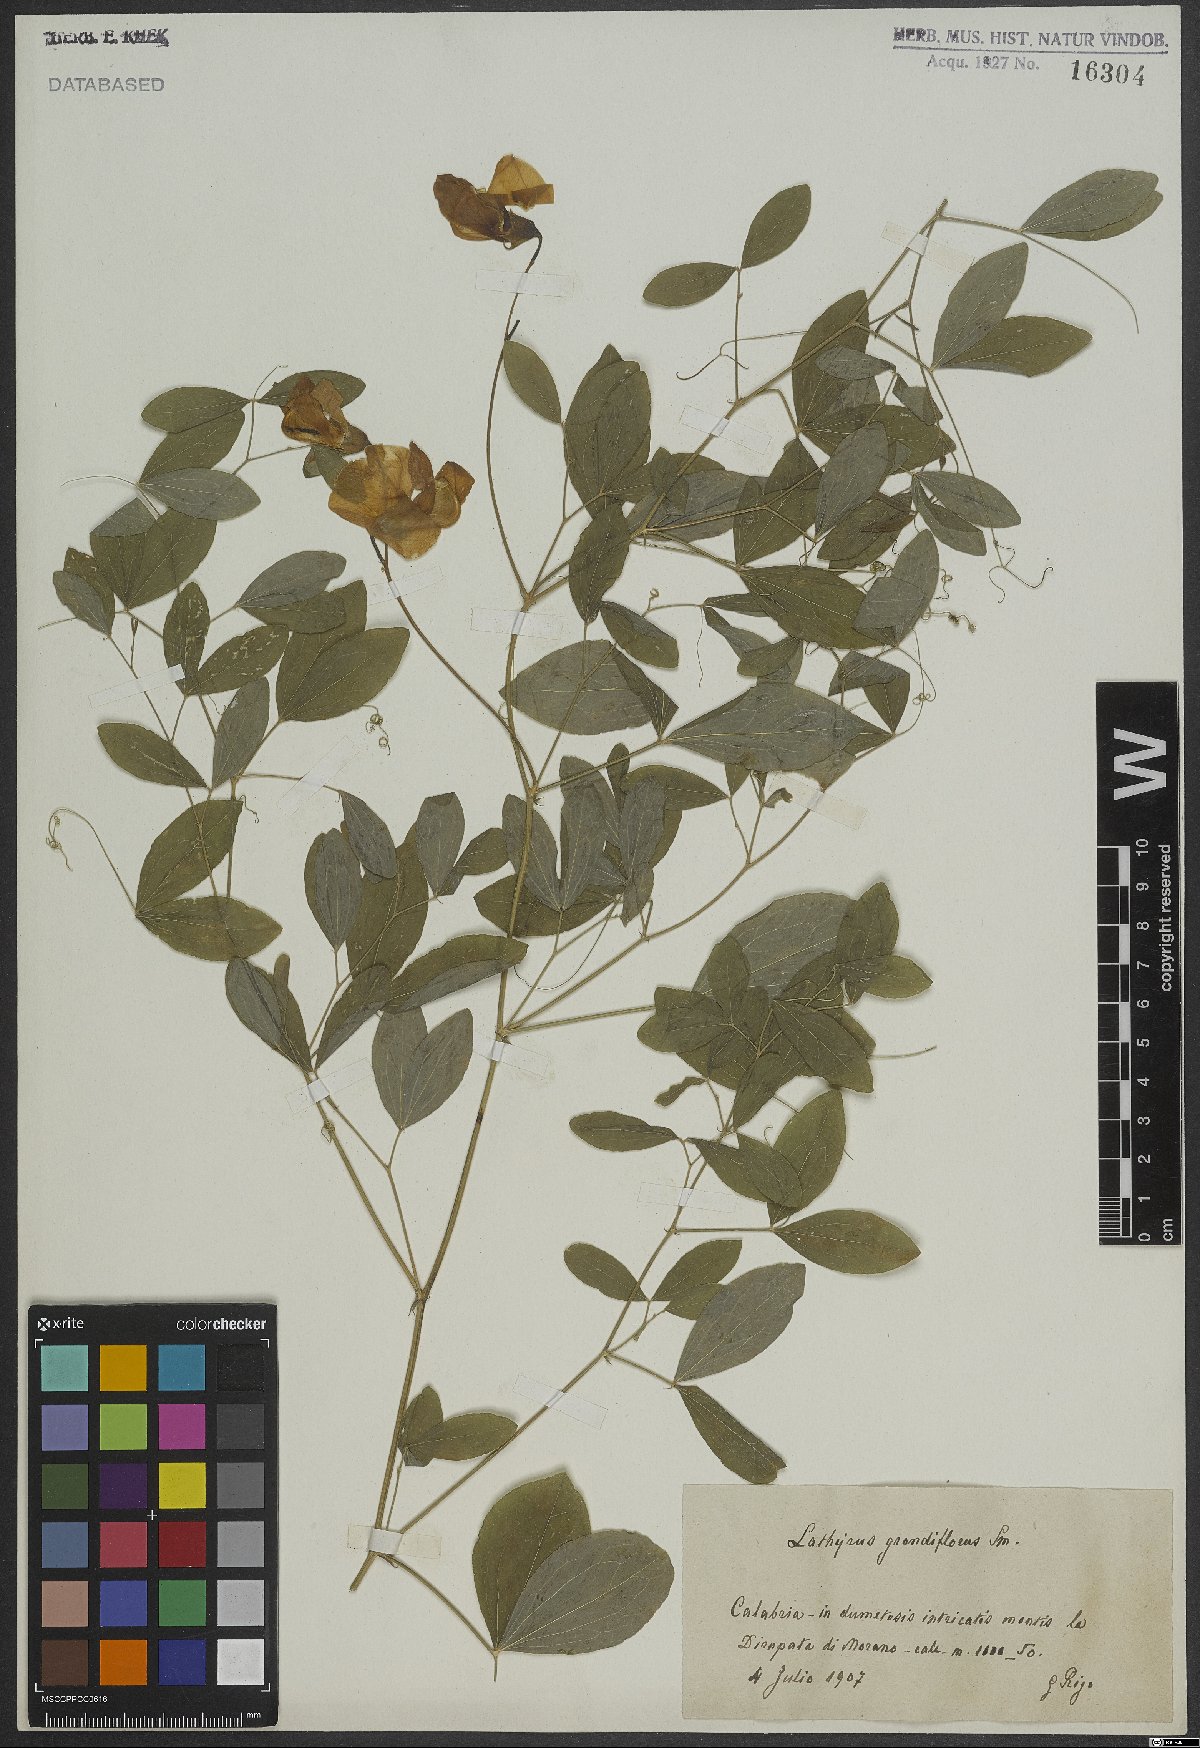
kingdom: Plantae
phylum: Tracheophyta
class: Magnoliopsida
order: Fabales
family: Fabaceae
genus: Lathyrus
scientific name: Lathyrus grandiflorus
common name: Two-flowered everlasting-pea
